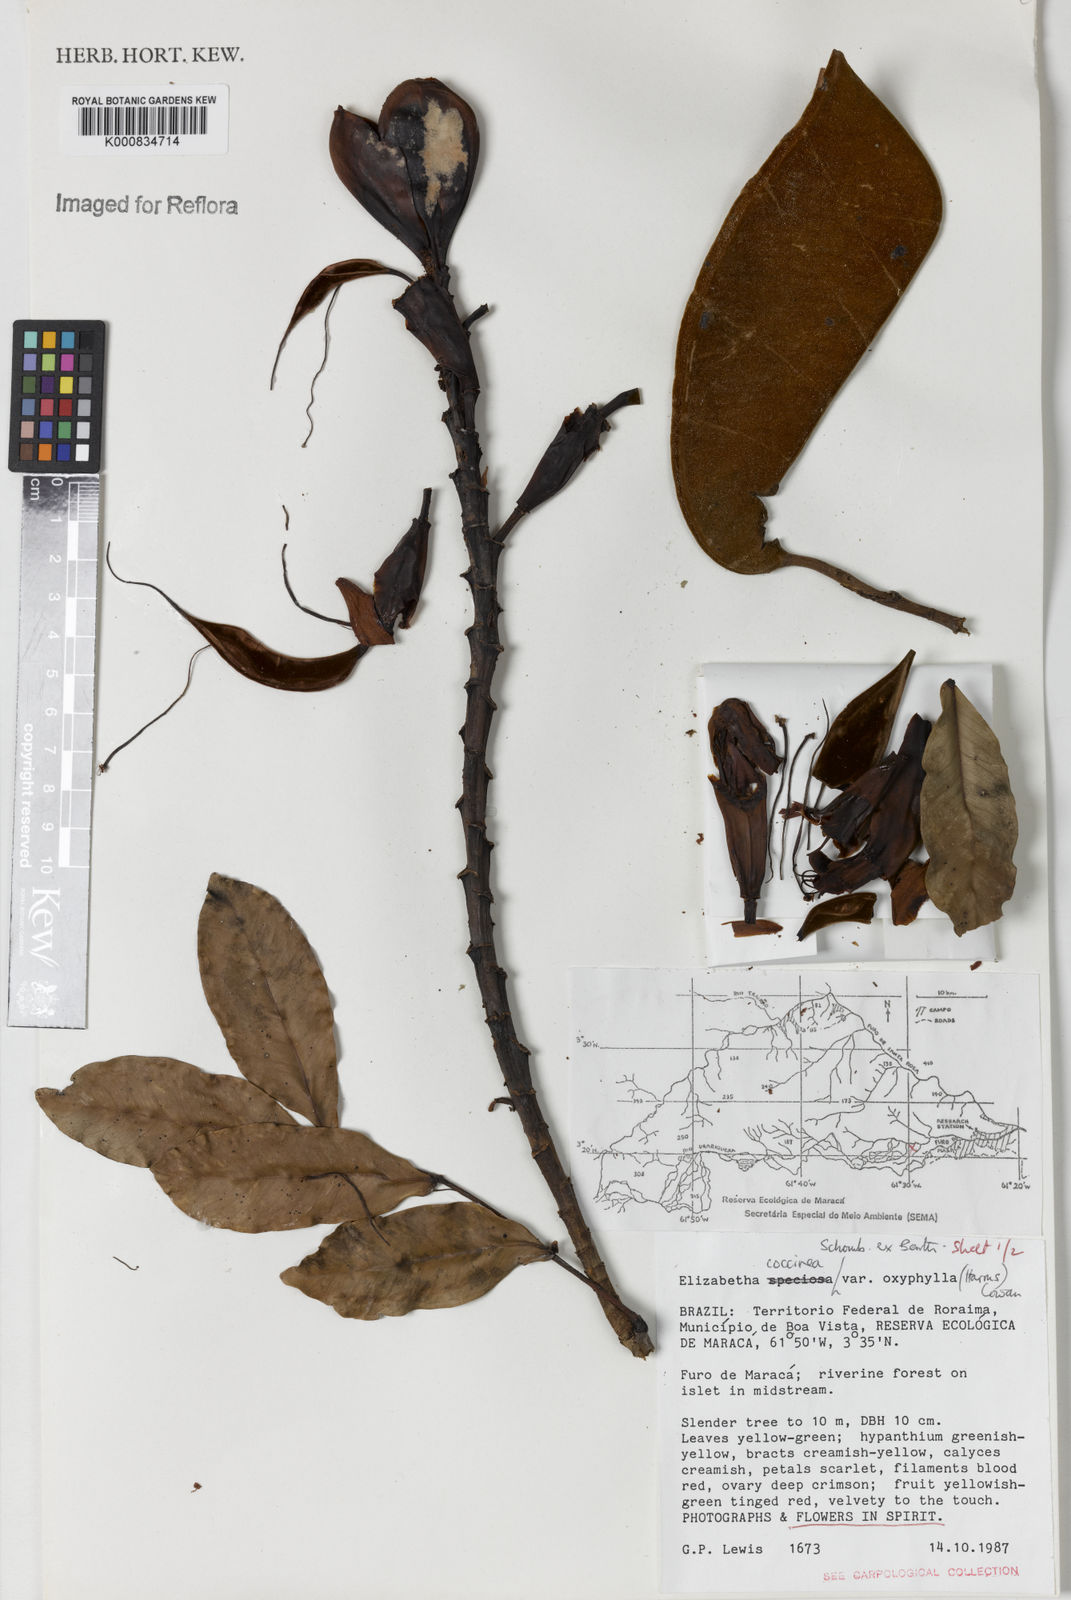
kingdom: Plantae
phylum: Tracheophyta
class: Magnoliopsida
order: Fabales
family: Fabaceae
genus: Paloue
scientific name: Paloue coccinea
